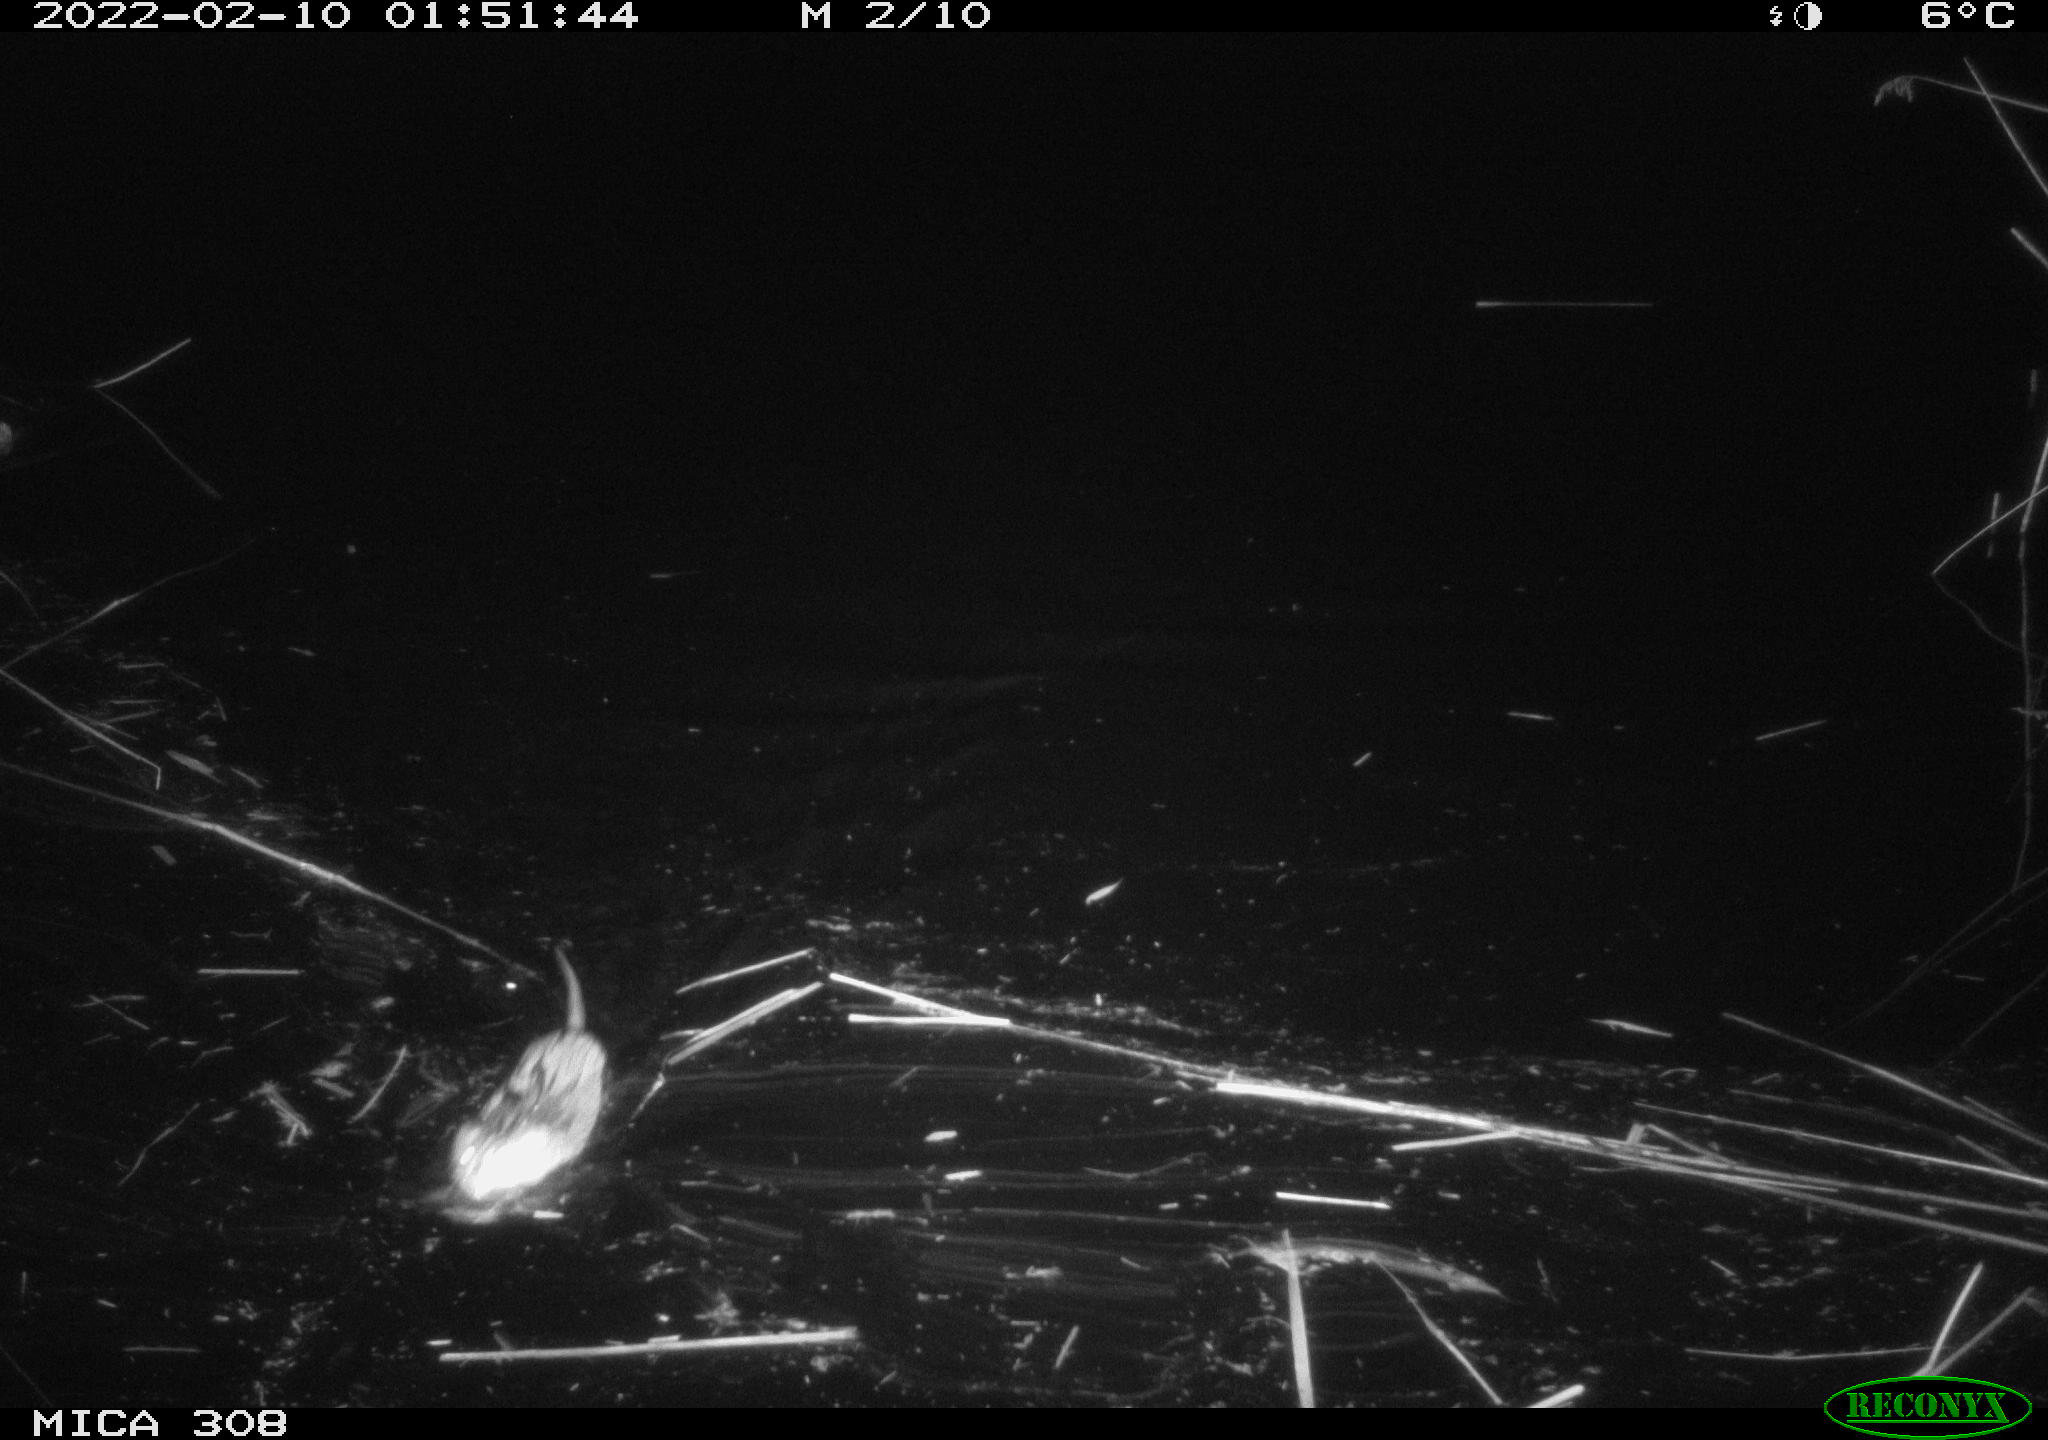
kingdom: Animalia
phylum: Chordata
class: Mammalia
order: Rodentia
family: Cricetidae
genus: Ondatra
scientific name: Ondatra zibethicus
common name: Muskrat
